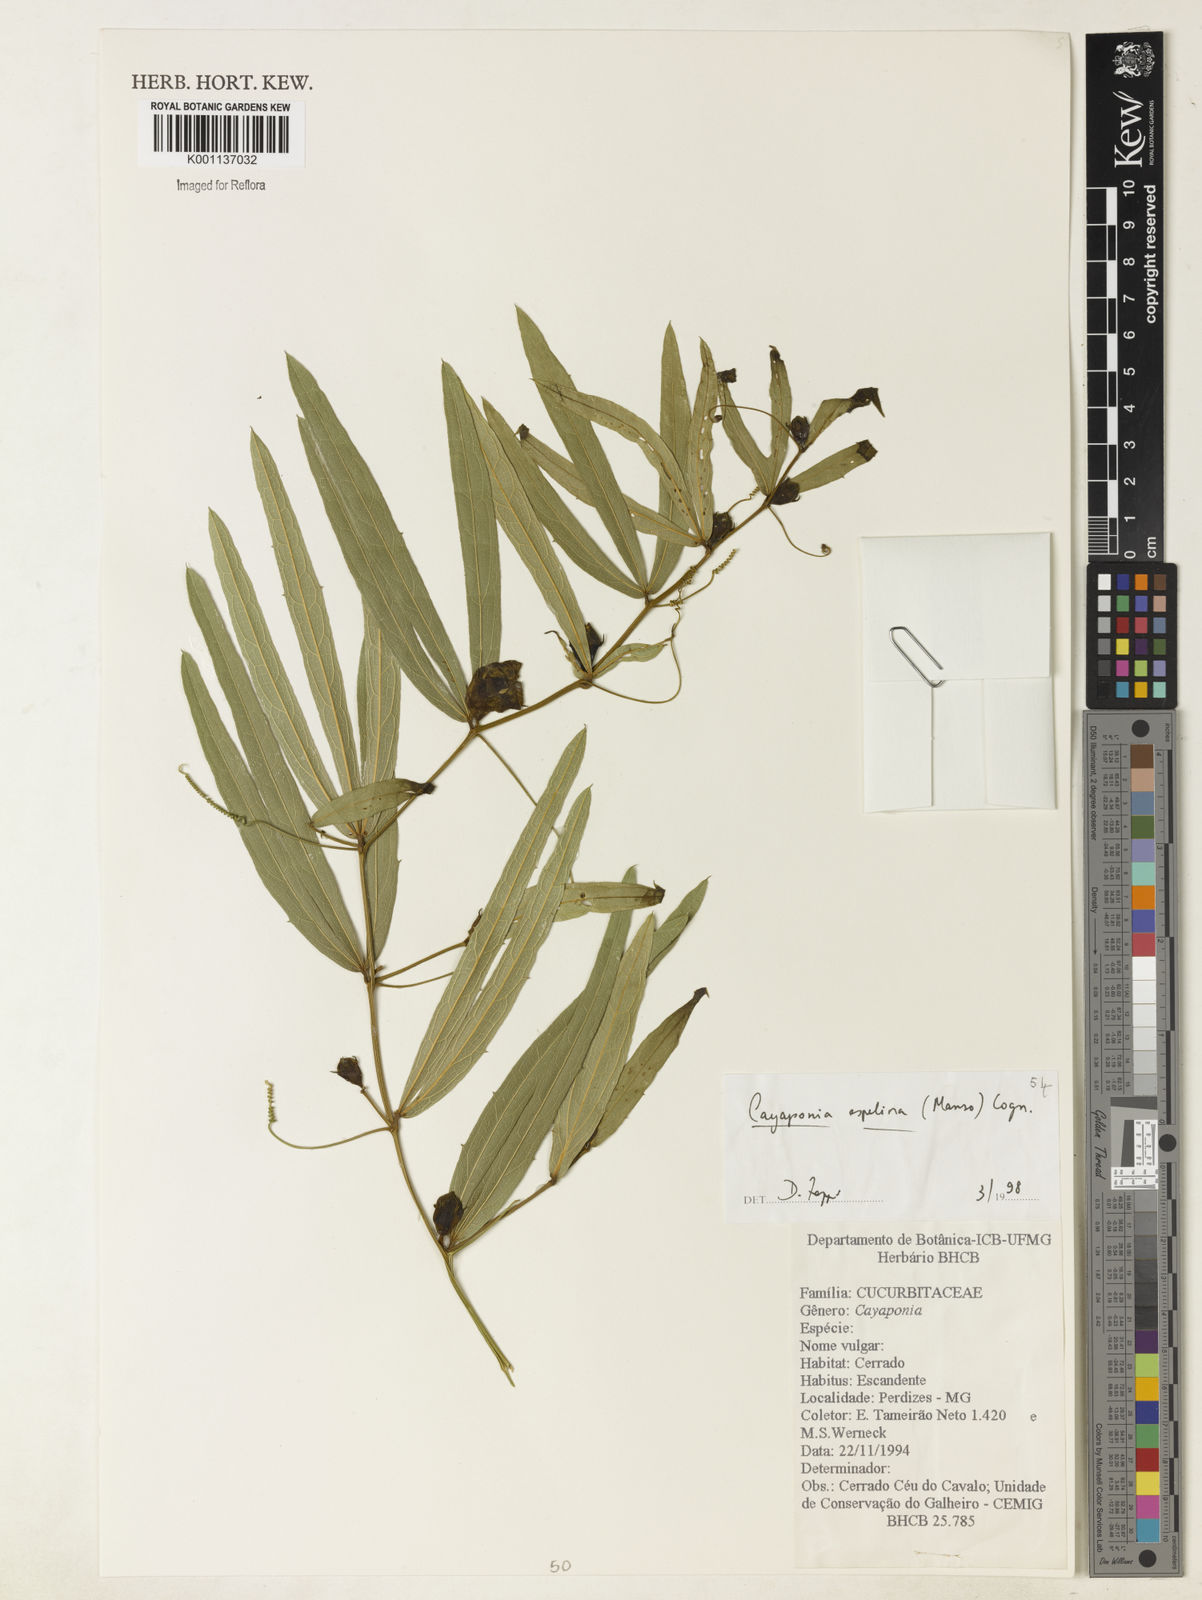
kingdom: Plantae
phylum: Tracheophyta
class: Magnoliopsida
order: Cucurbitales
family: Cucurbitaceae
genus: Cayaponia
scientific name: Cayaponia espelina
